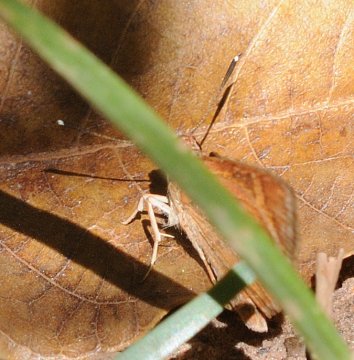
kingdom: Animalia
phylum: Arthropoda
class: Insecta
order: Lepidoptera
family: Hesperiidae
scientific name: Hesperiidae
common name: Skippers
